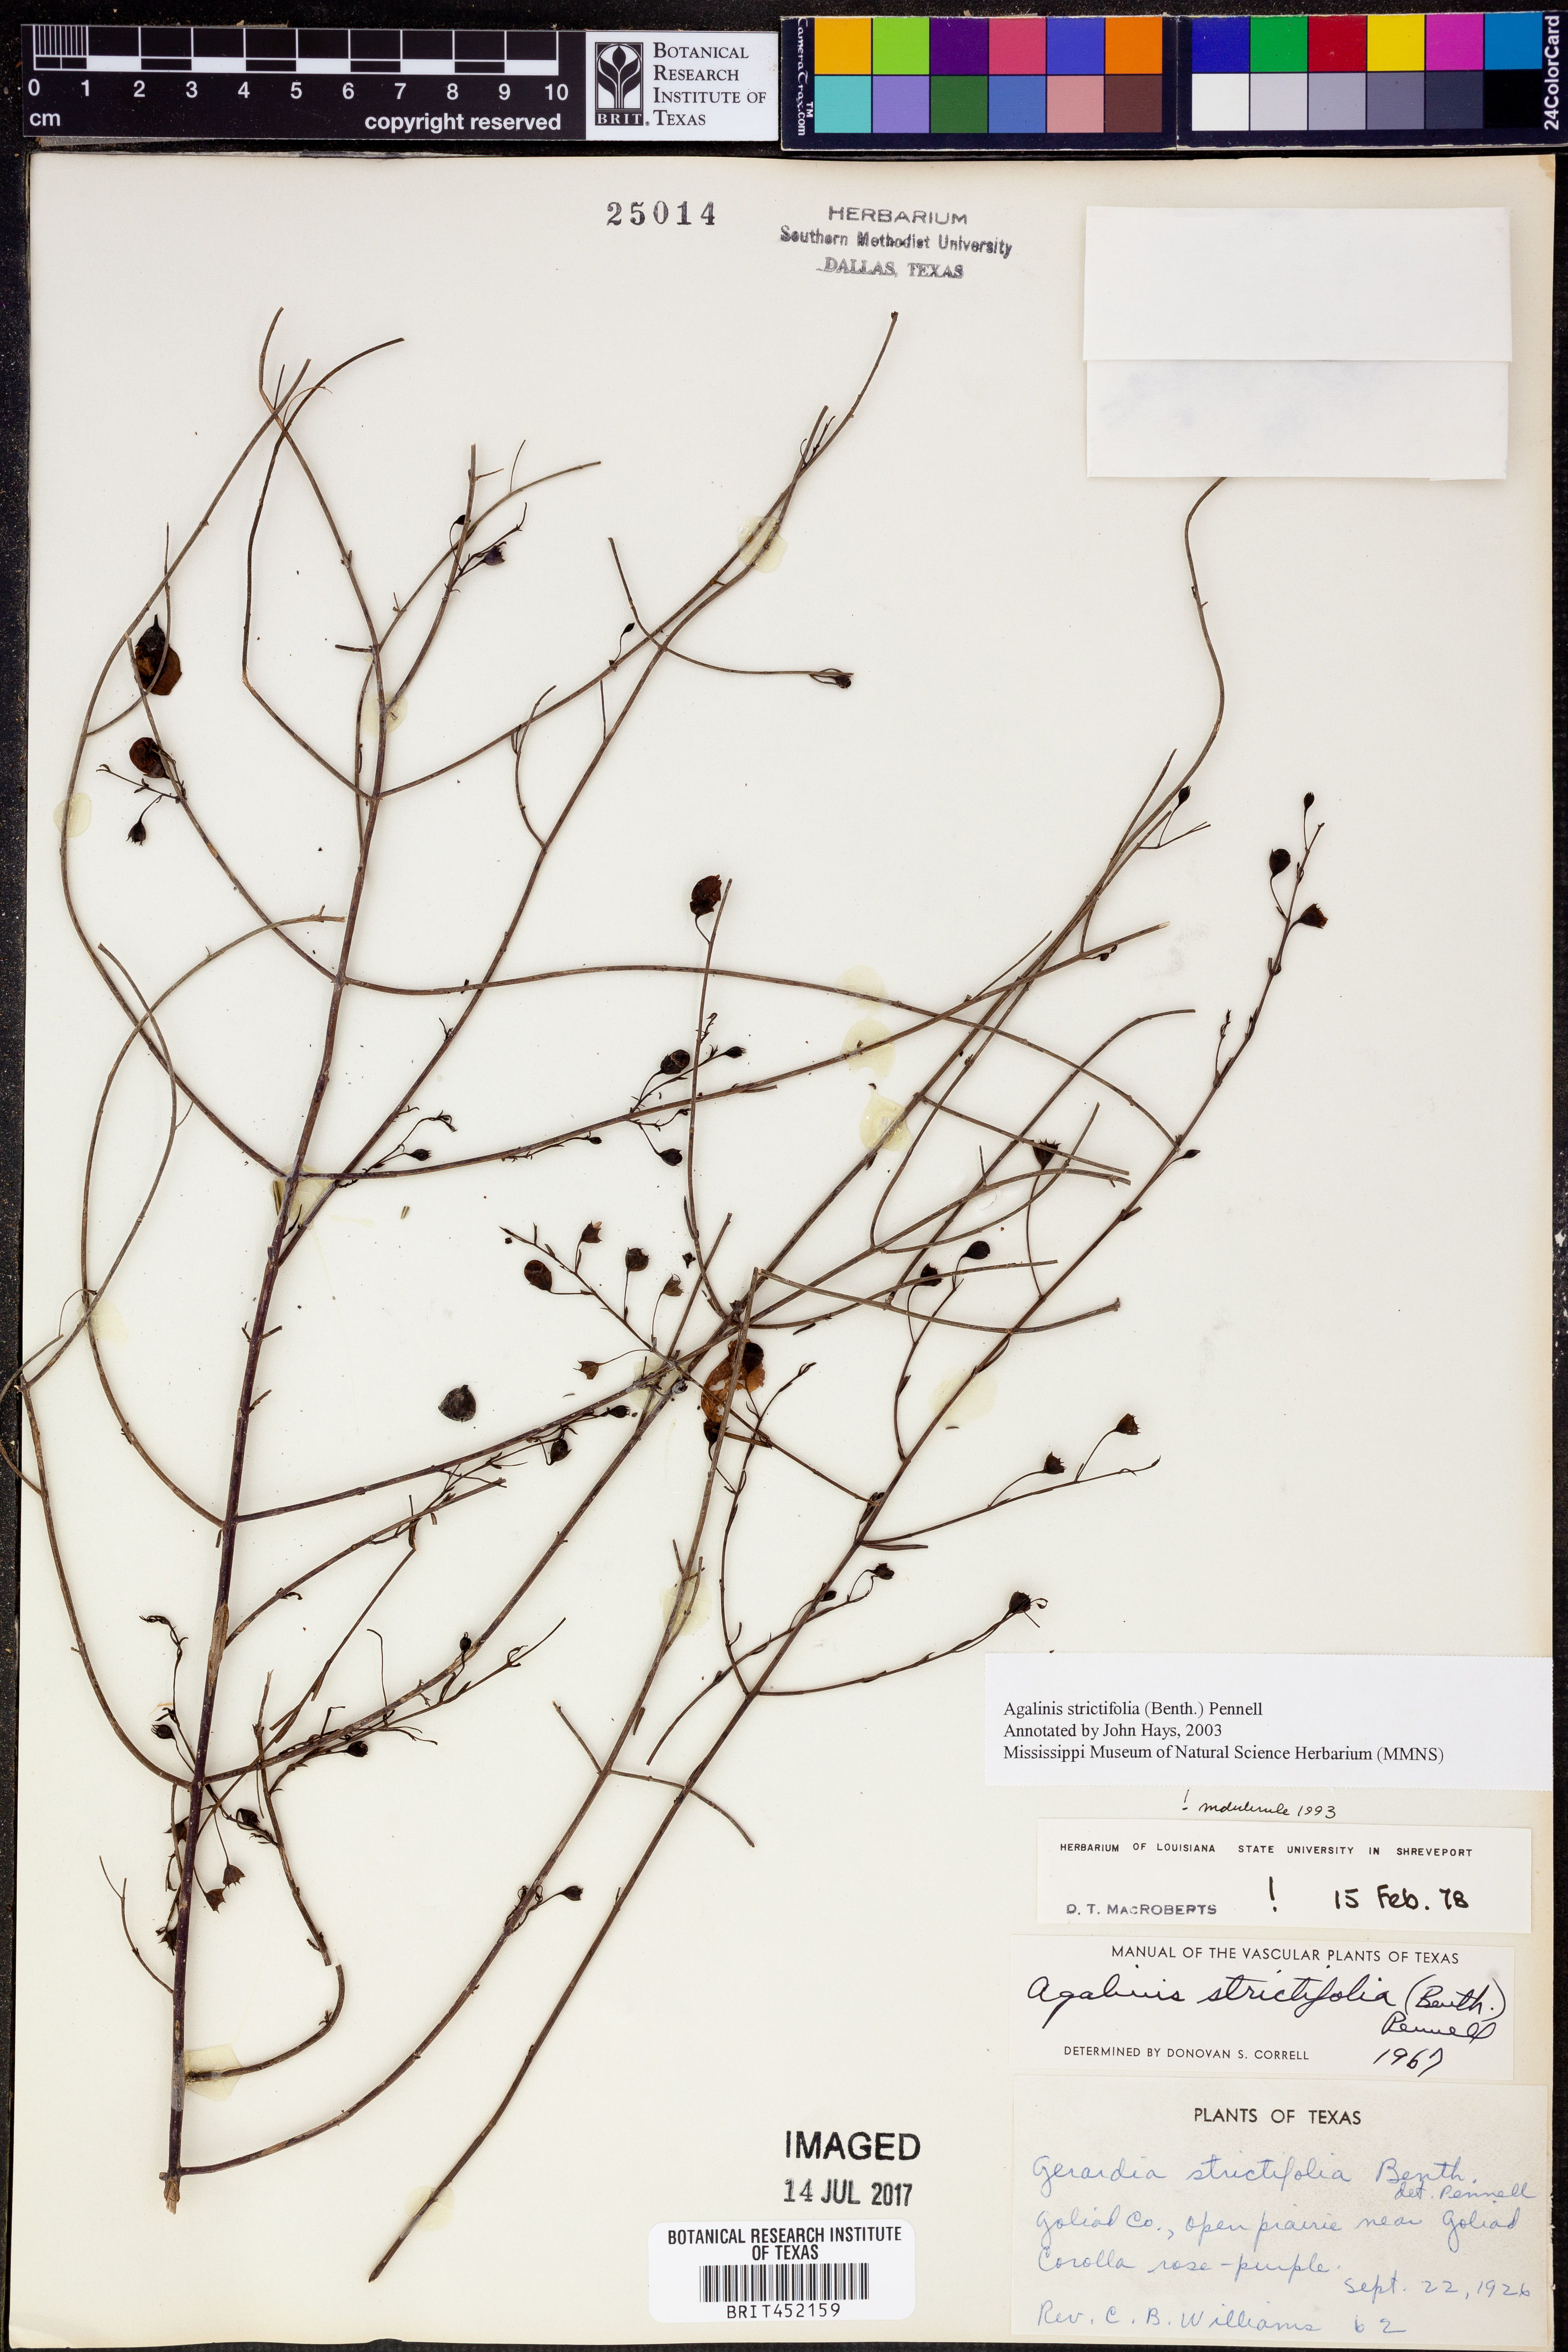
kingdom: Plantae
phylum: Tracheophyta
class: Magnoliopsida
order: Lamiales
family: Orobanchaceae
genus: Agalinis
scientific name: Agalinis strictifolia
